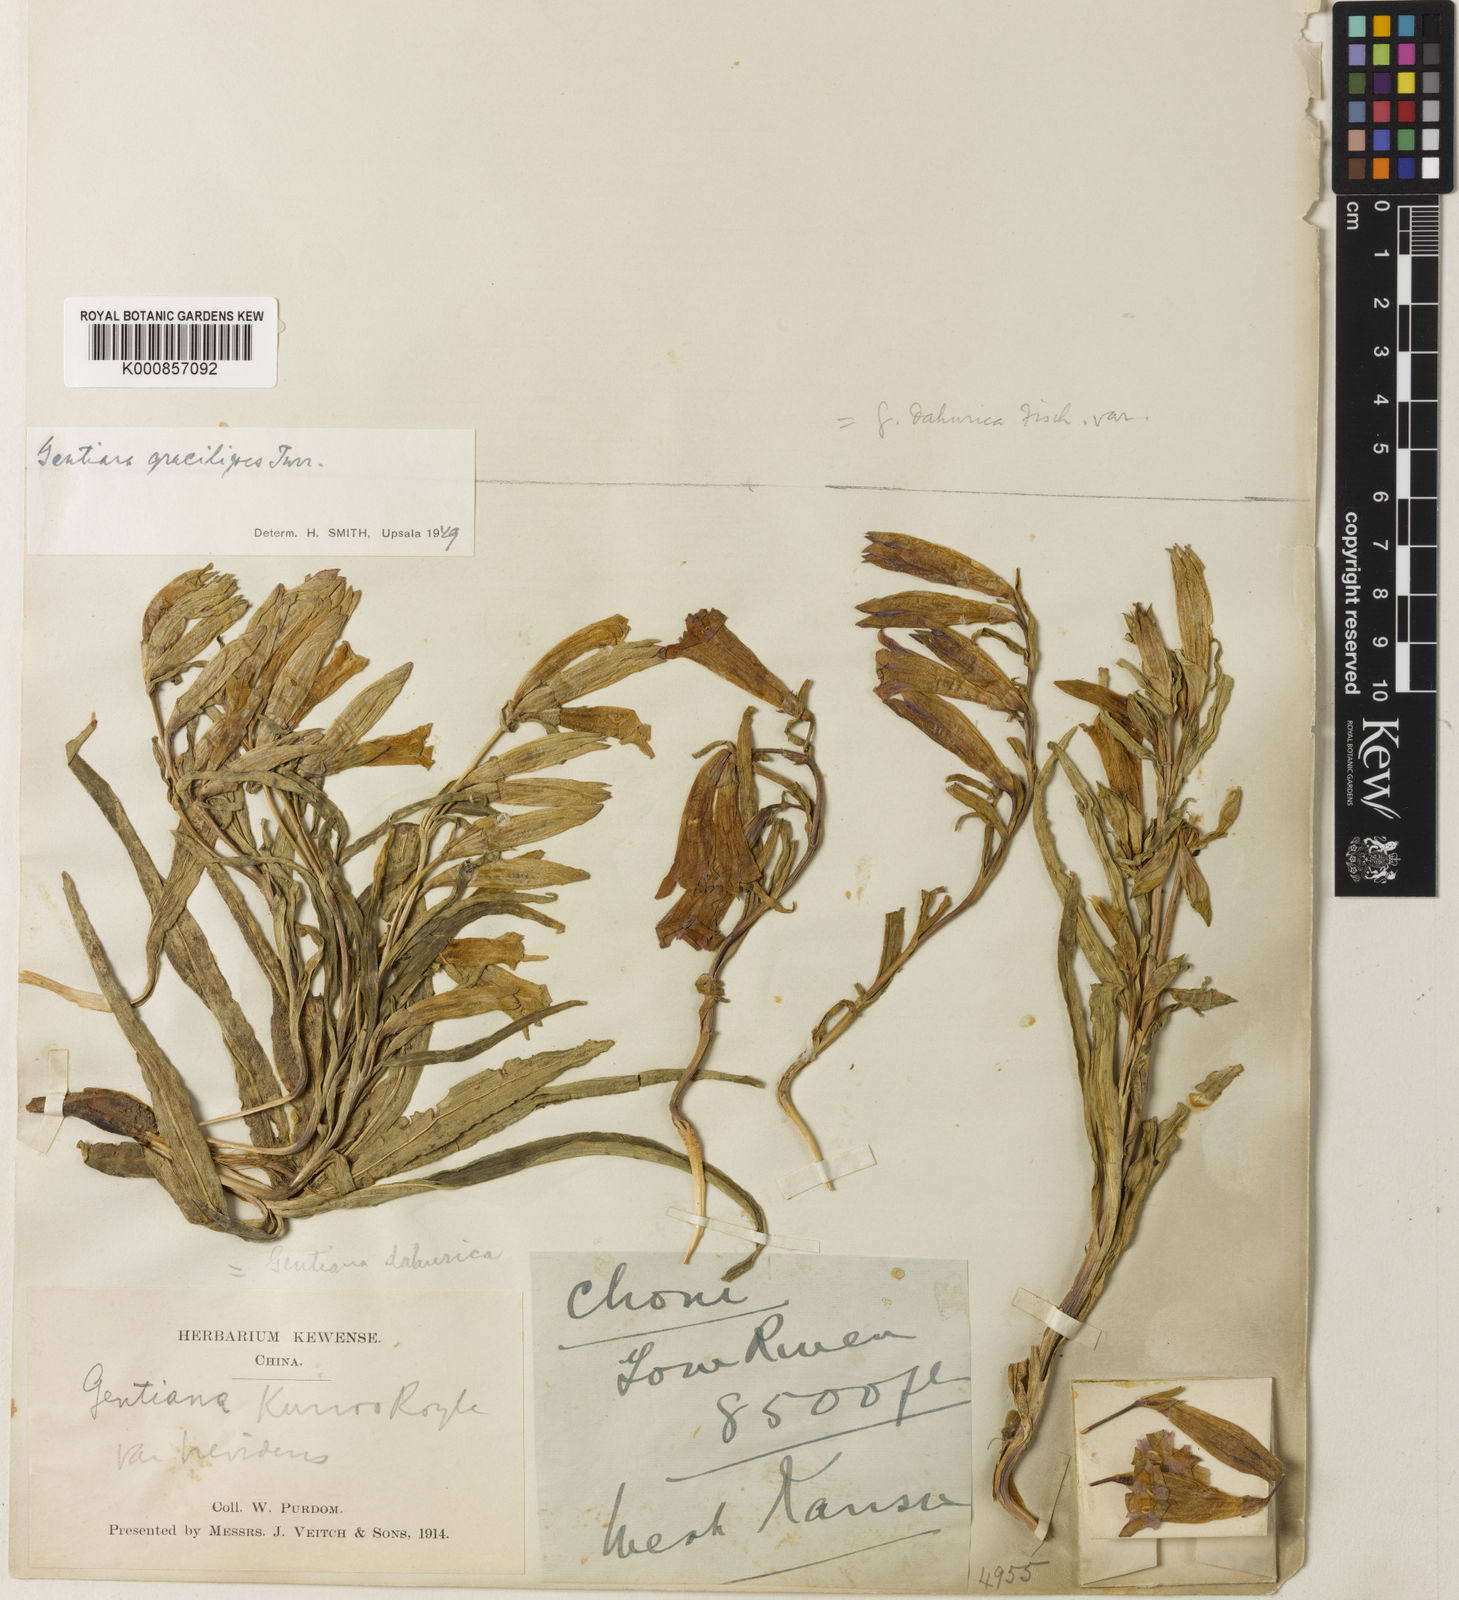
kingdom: Plantae
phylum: Tracheophyta
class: Magnoliopsida
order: Gentianales
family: Gentianaceae
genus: Gentiana
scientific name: Gentiana dahurica
